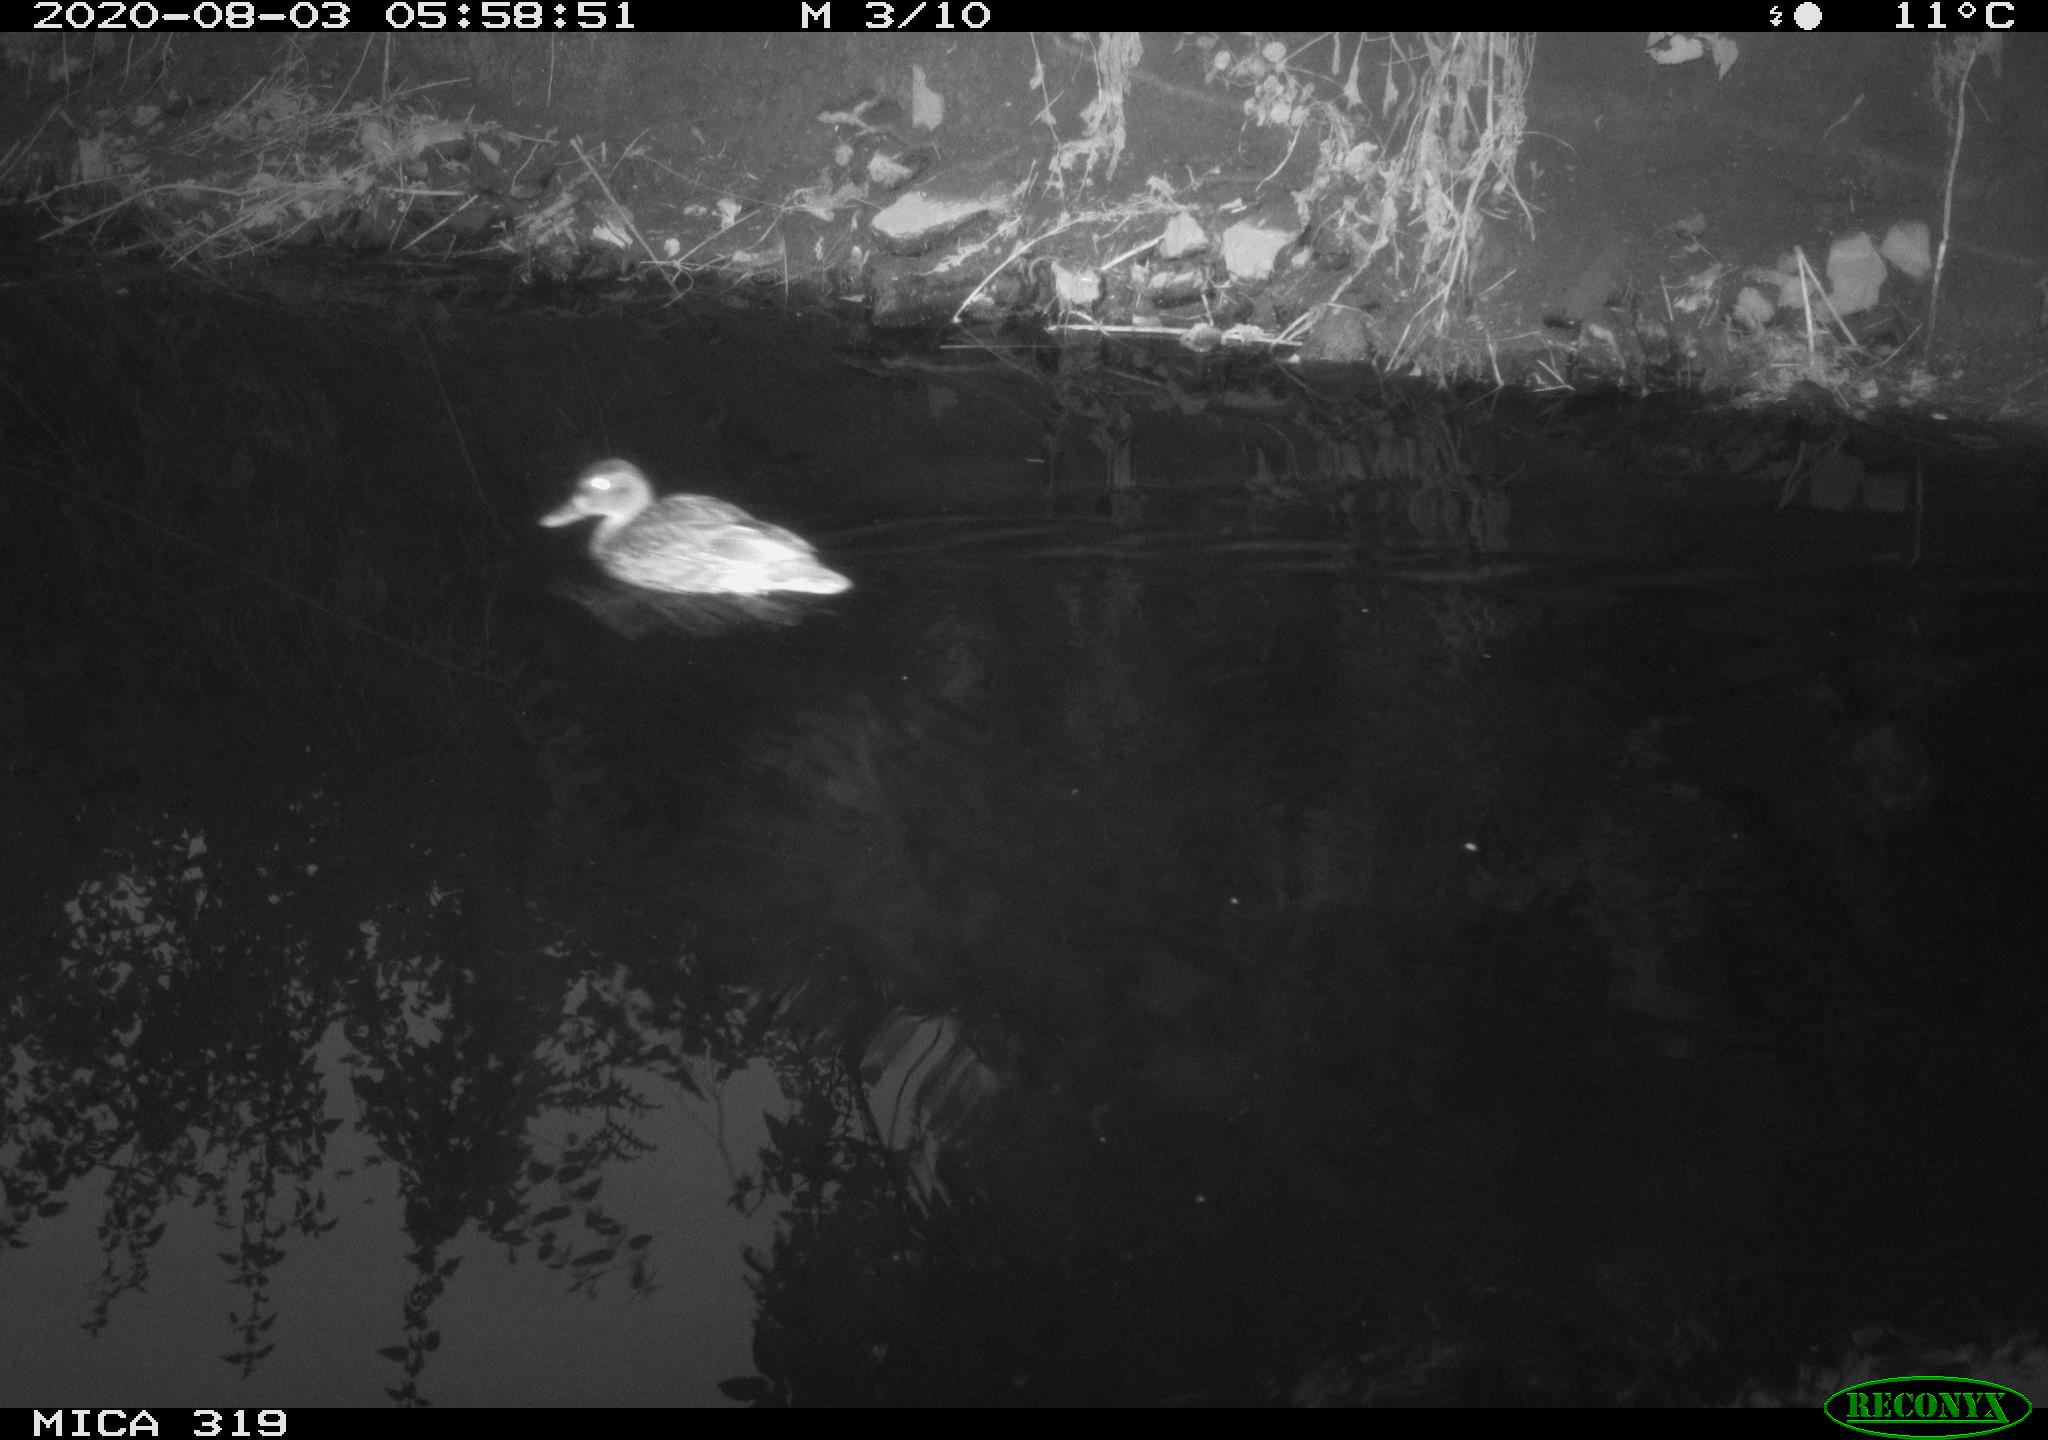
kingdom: Animalia
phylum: Chordata
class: Aves
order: Anseriformes
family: Anatidae
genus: Anas
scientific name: Anas platyrhynchos
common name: Mallard
